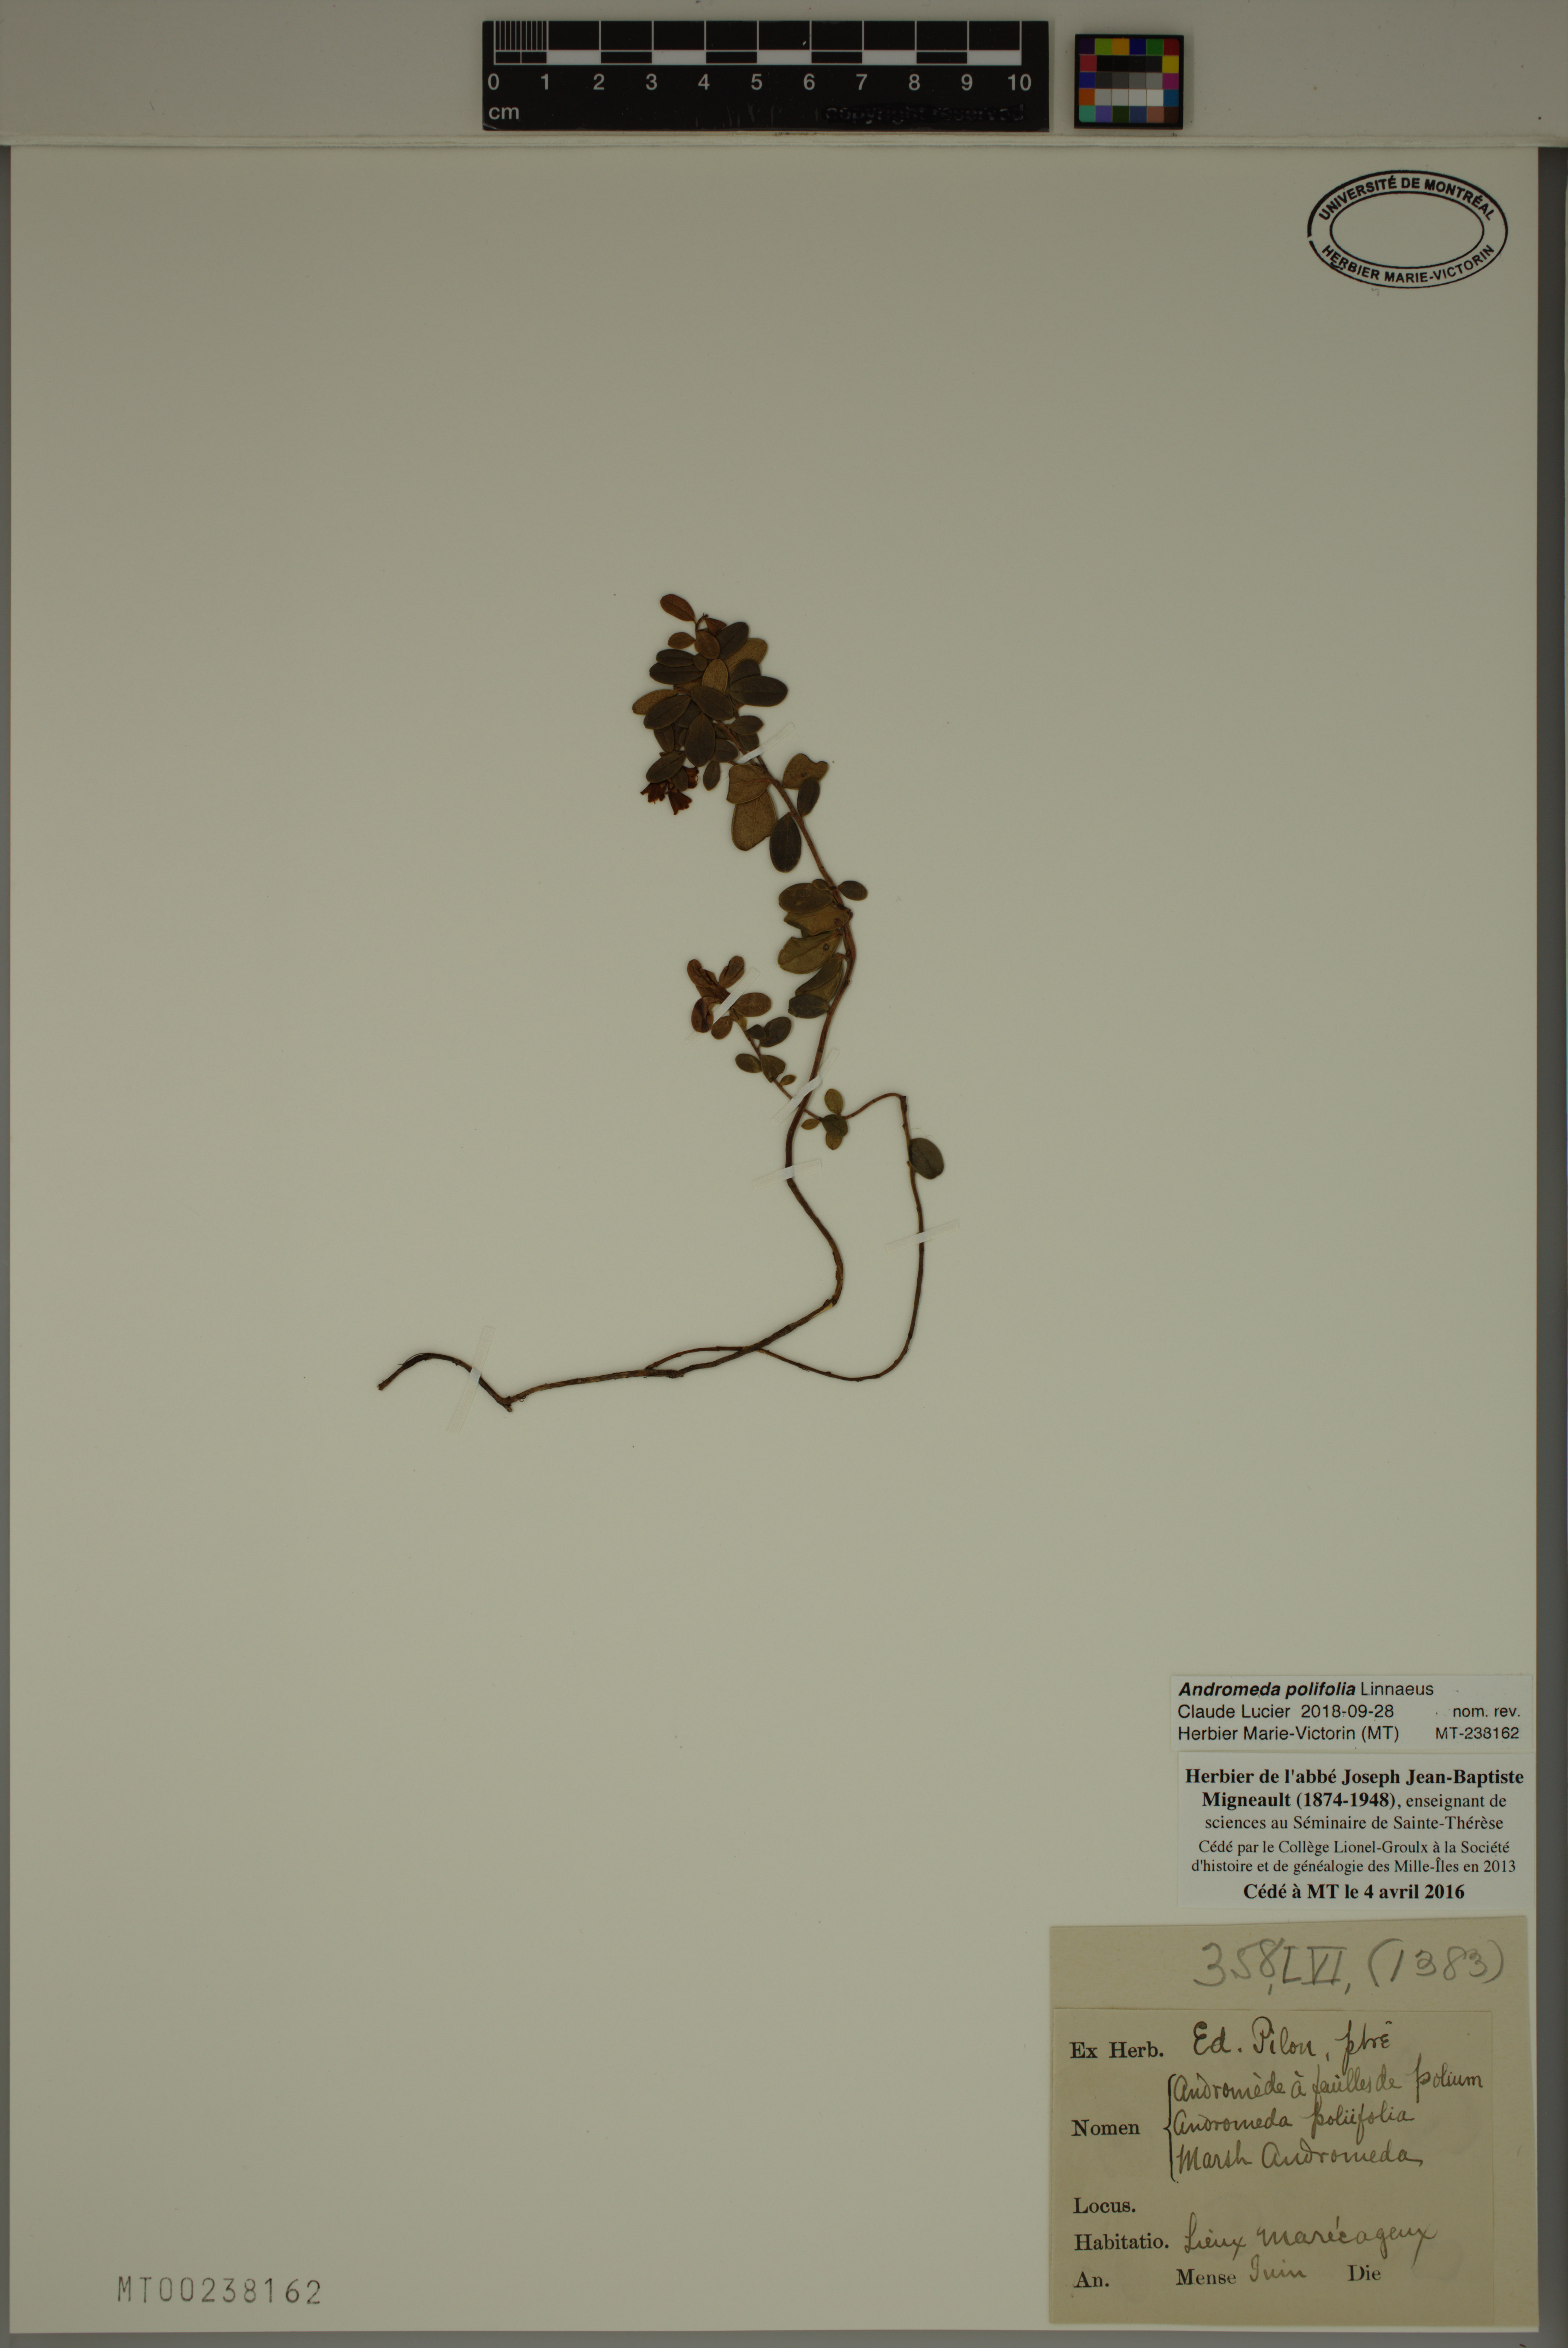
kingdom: Plantae
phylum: Tracheophyta
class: Magnoliopsida
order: Ericales
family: Ericaceae
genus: Andromeda
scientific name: Andromeda polifolia
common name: Bog-rosemary
